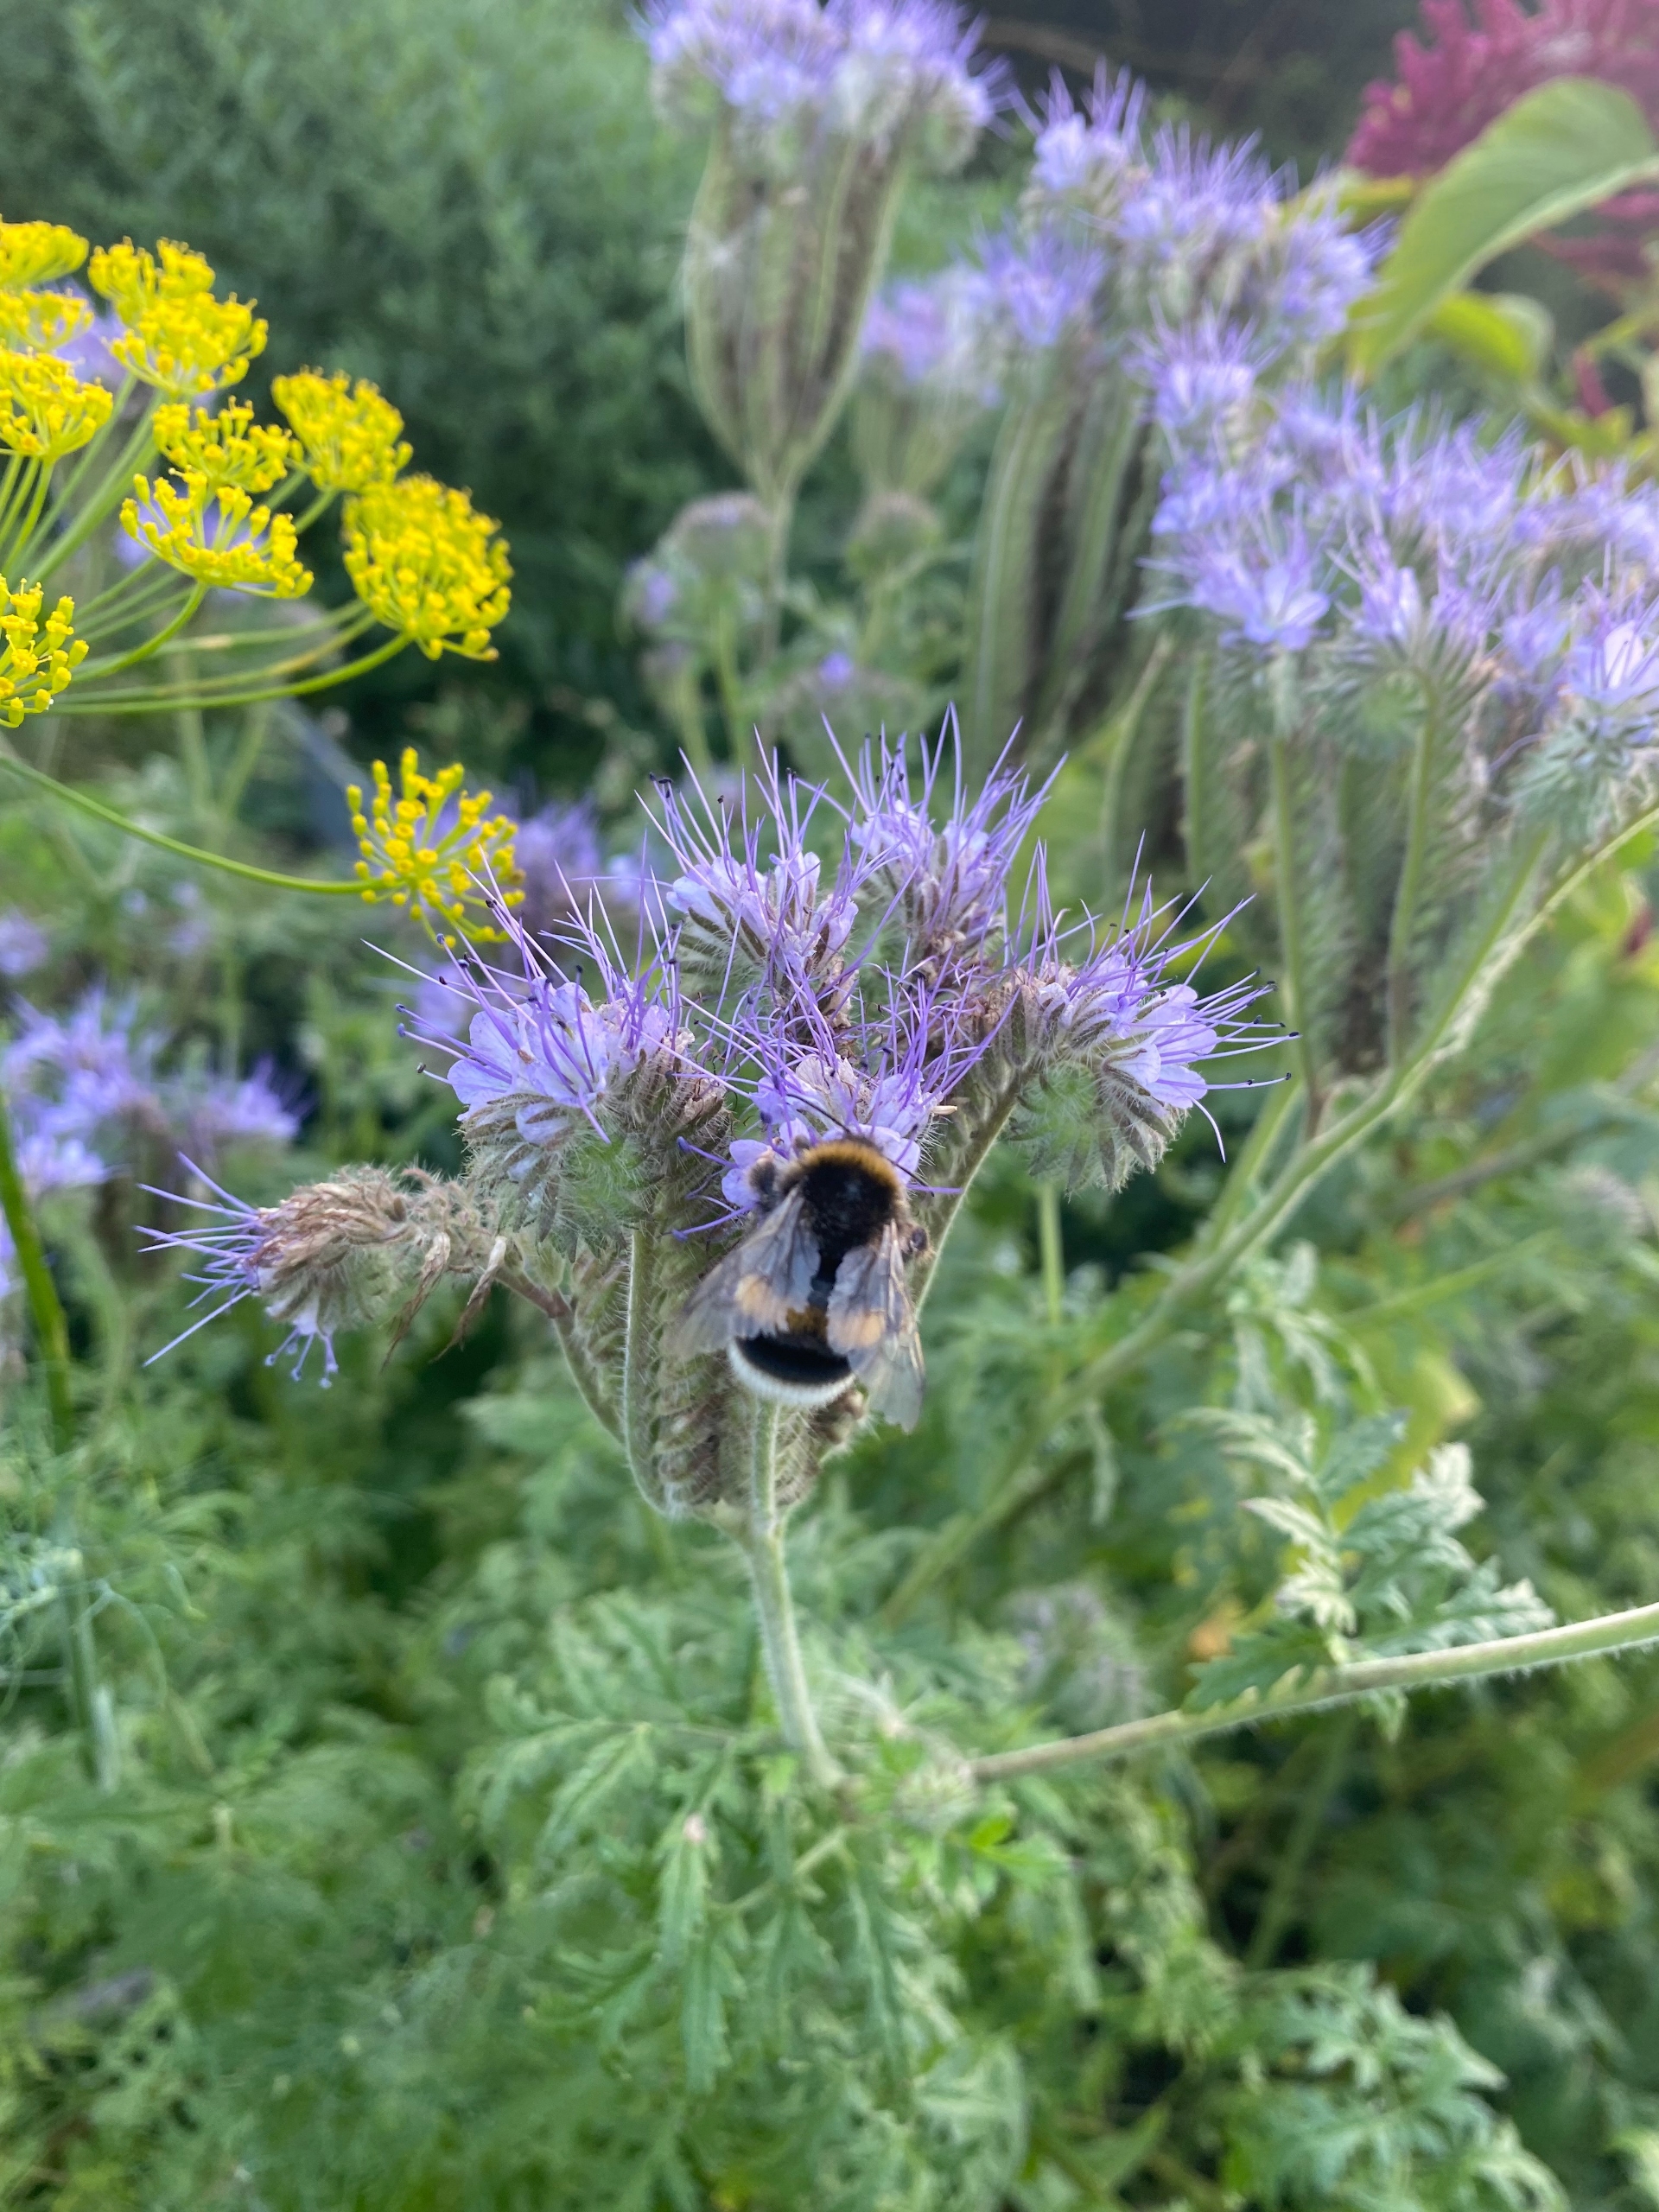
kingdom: Animalia
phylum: Arthropoda
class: Insecta
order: Hymenoptera
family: Apidae
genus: Bombus
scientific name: Bombus
